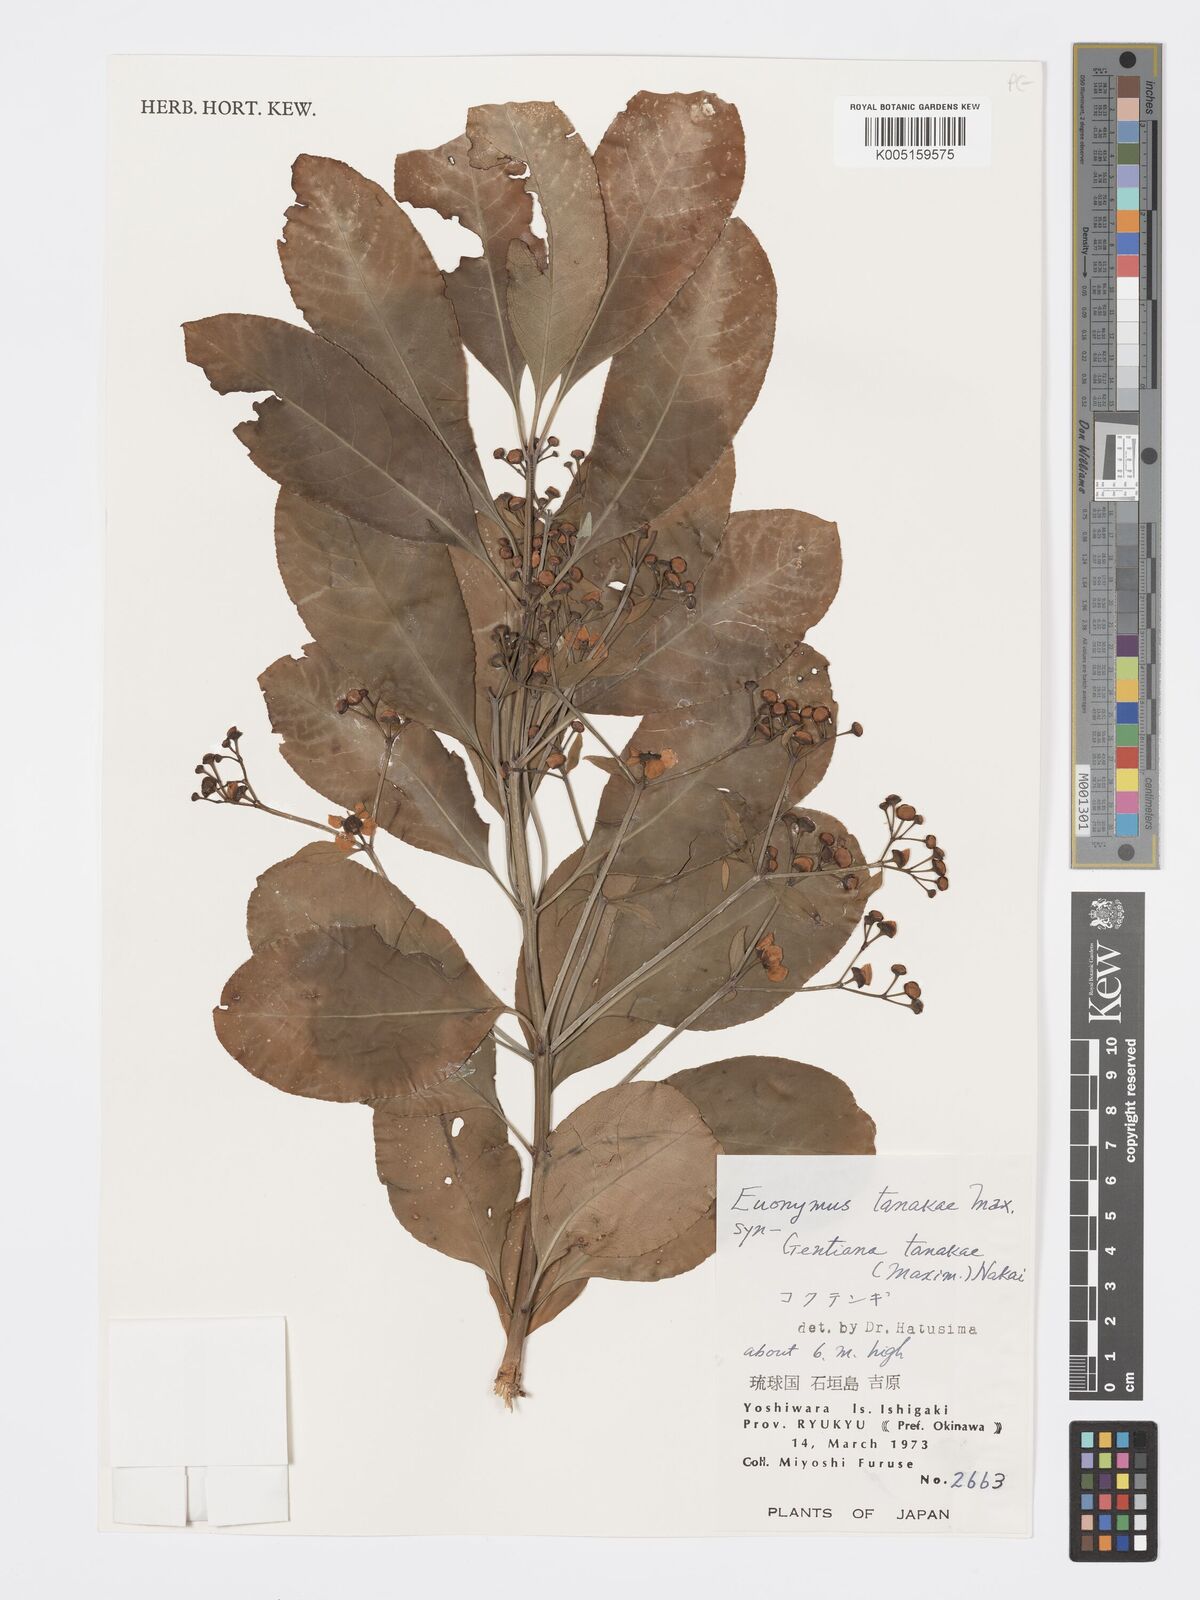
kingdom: Plantae
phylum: Tracheophyta
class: Magnoliopsida
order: Celastrales
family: Celastraceae
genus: Euonymus
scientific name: Euonymus carnosus
